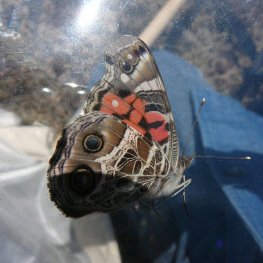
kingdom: Animalia
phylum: Arthropoda
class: Insecta
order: Lepidoptera
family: Nymphalidae
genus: Vanessa
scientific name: Vanessa virginiensis
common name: American Lady
